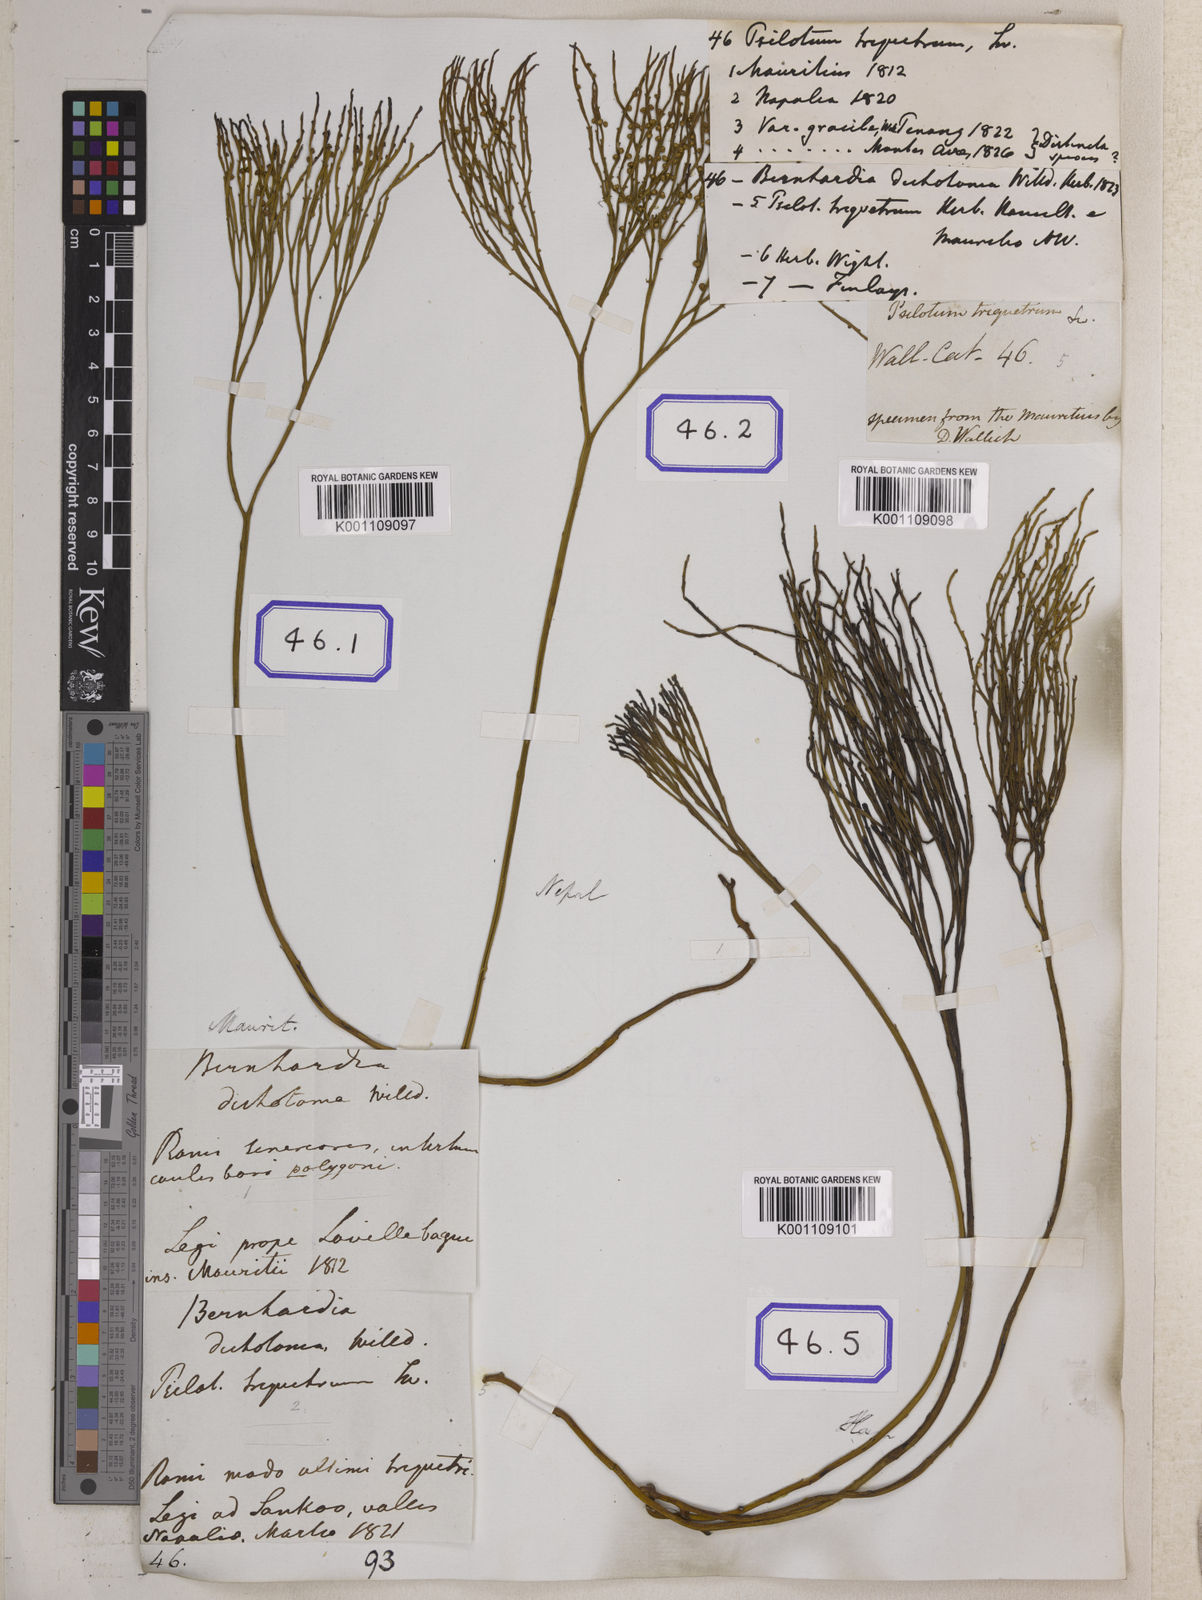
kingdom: Plantae
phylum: Tracheophyta
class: Polypodiopsida
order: Psilotales
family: Psilotaceae
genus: Psilotum
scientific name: Psilotum nudum
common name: Skeleton fork fern
